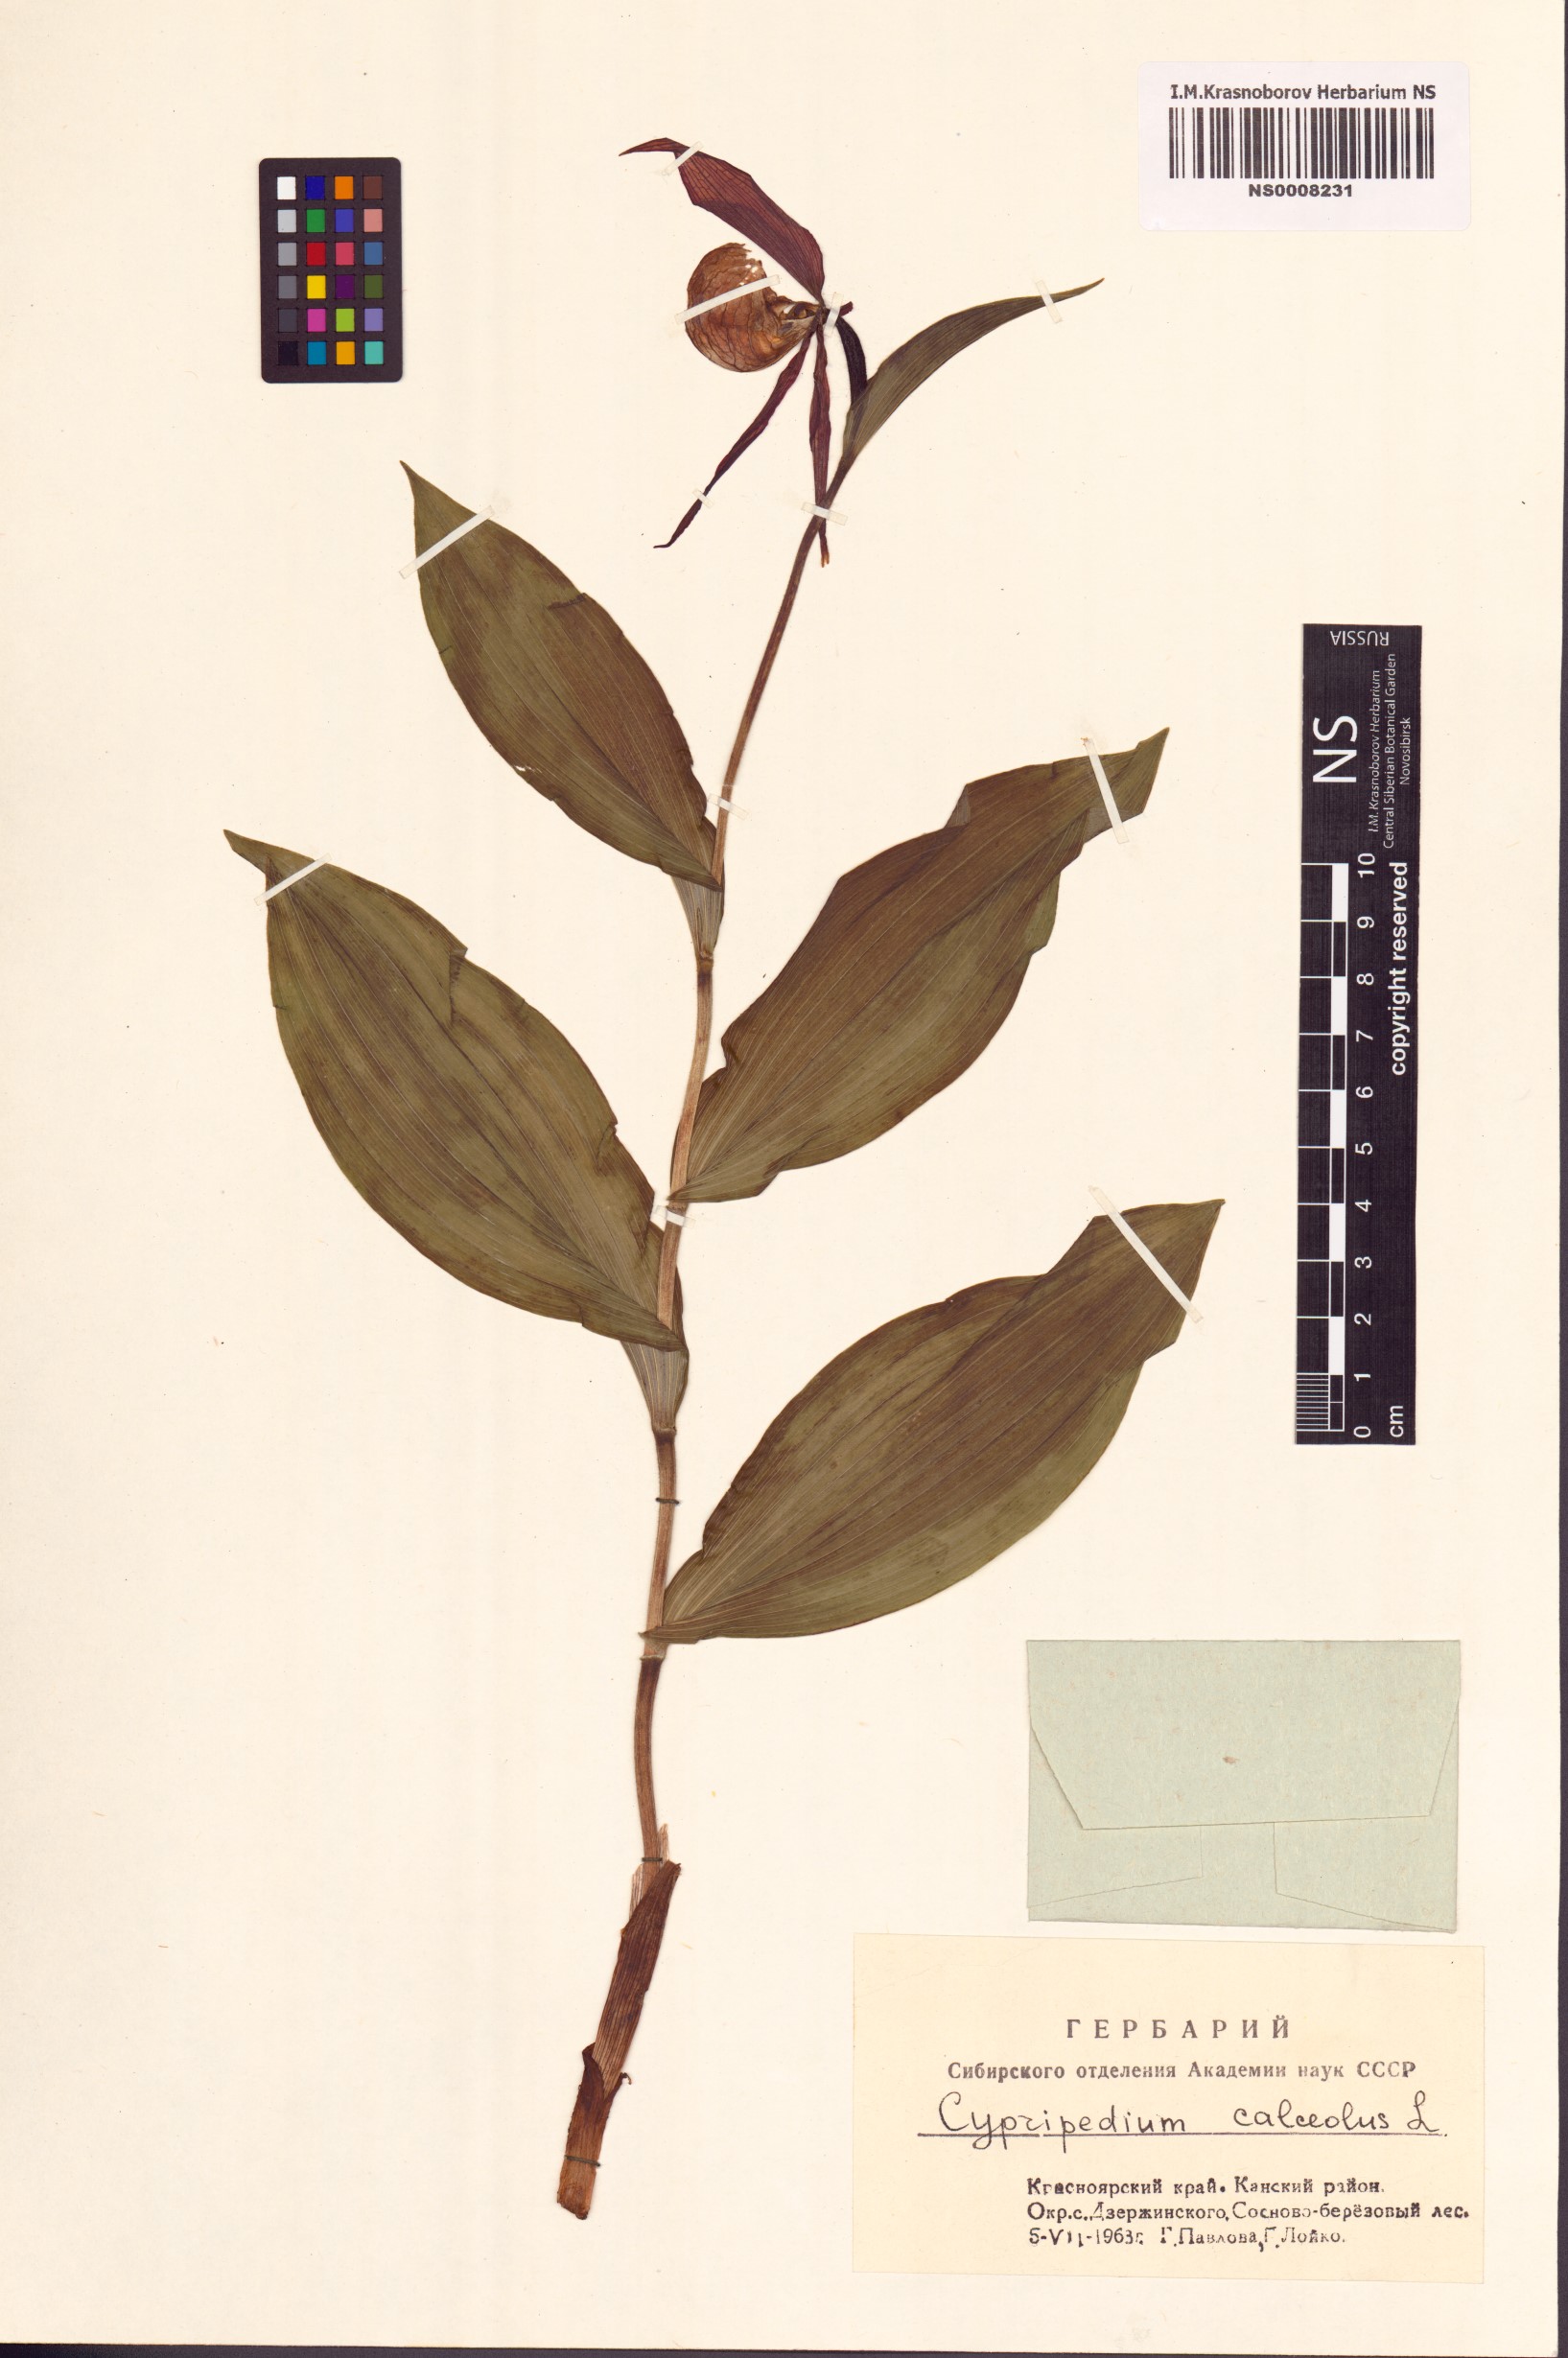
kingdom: Plantae
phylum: Tracheophyta
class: Liliopsida
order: Asparagales
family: Orchidaceae
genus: Cypripedium
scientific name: Cypripedium calceolus
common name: Lady's-slipper
